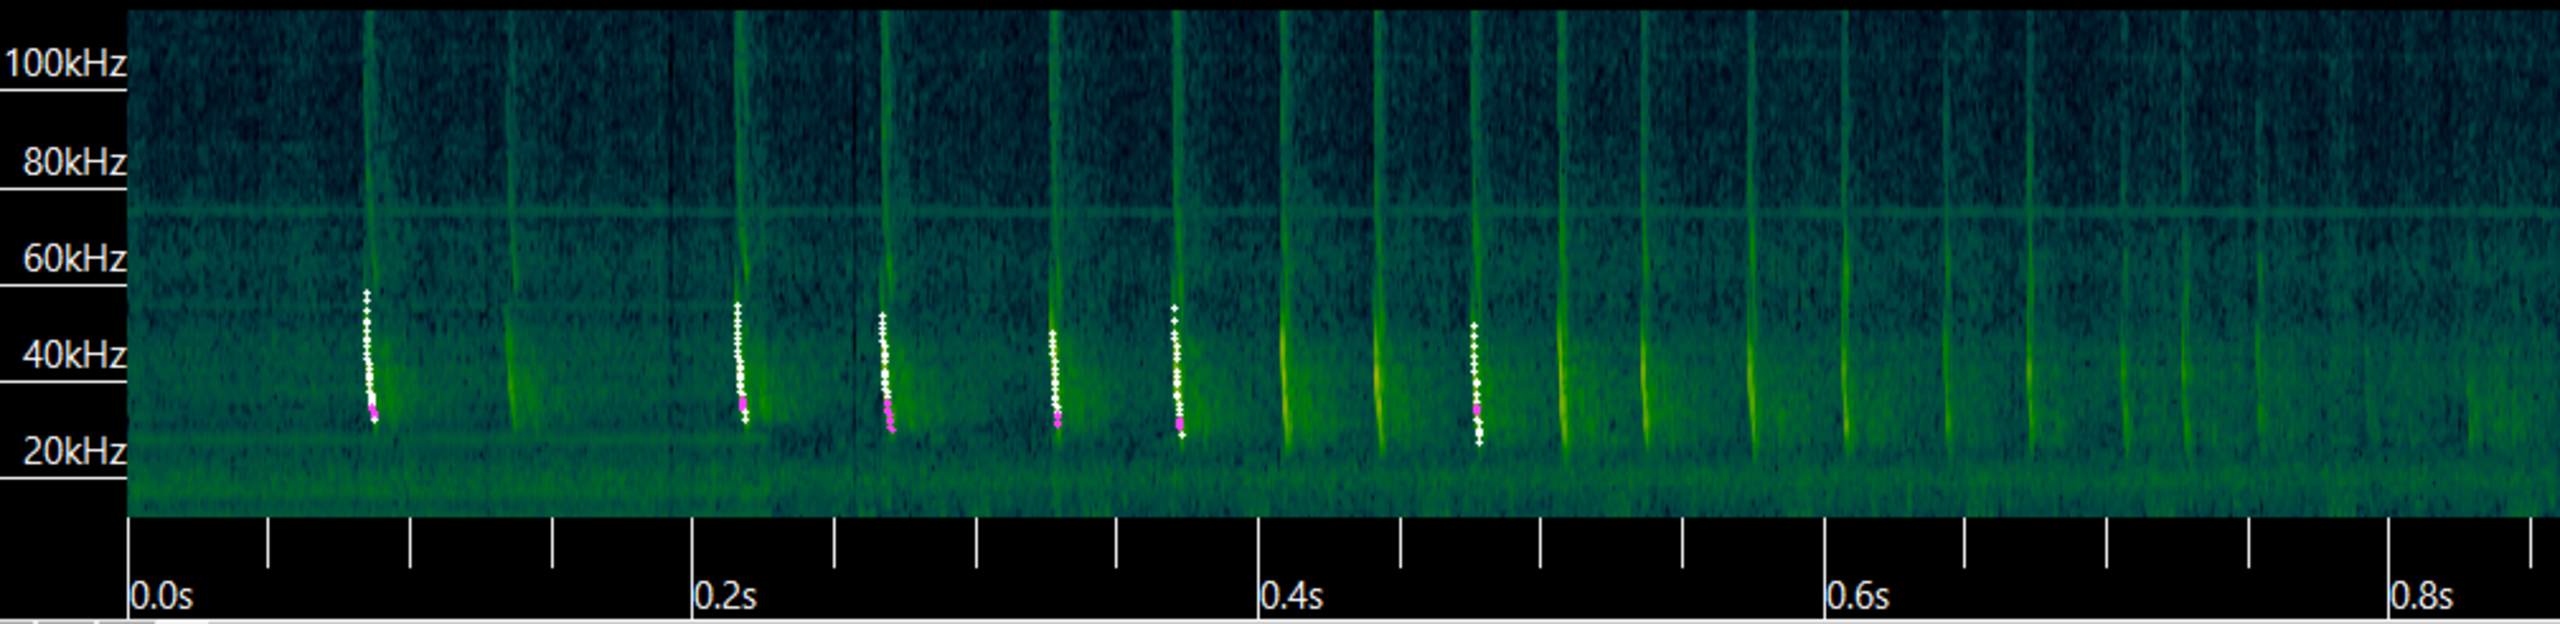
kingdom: Animalia
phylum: Chordata
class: Mammalia
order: Chiroptera
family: Vespertilionidae
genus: Eptesicus
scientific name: Eptesicus serotinus
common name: Sydflagermus
